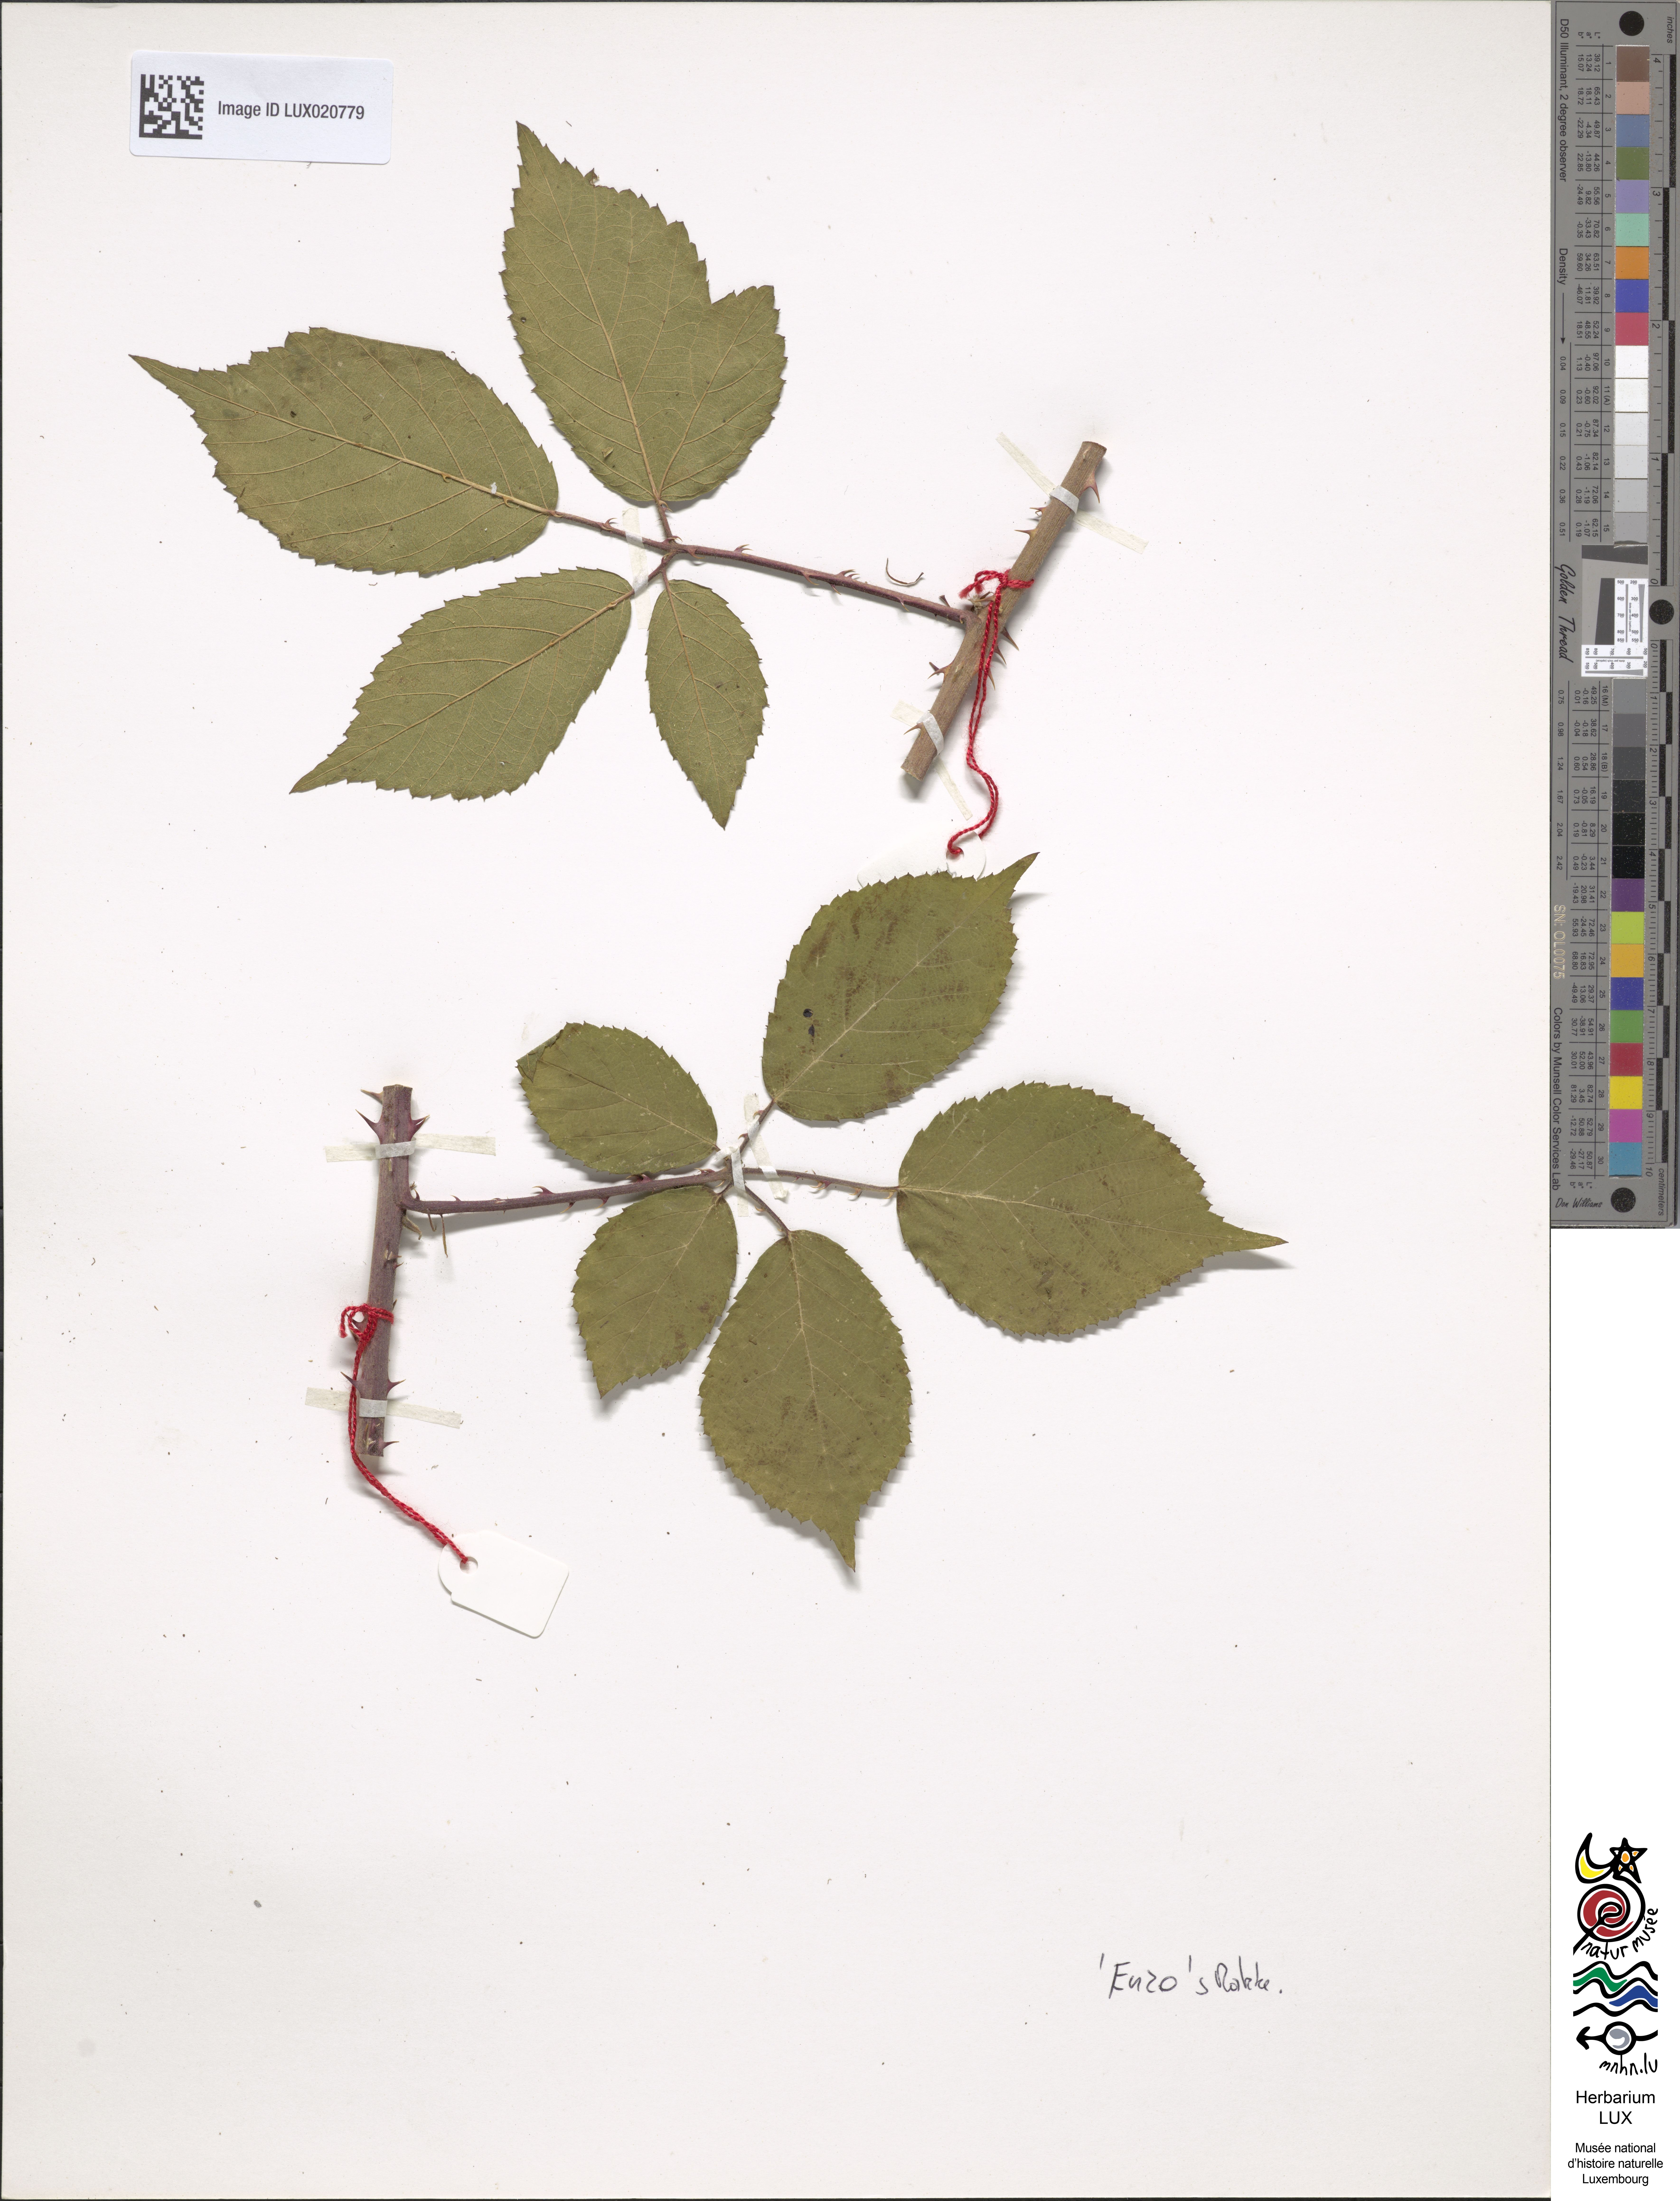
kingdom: Plantae
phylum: Tracheophyta
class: Magnoliopsida
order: Rosales
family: Rosaceae
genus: Rubus
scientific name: Rubus dechenii
